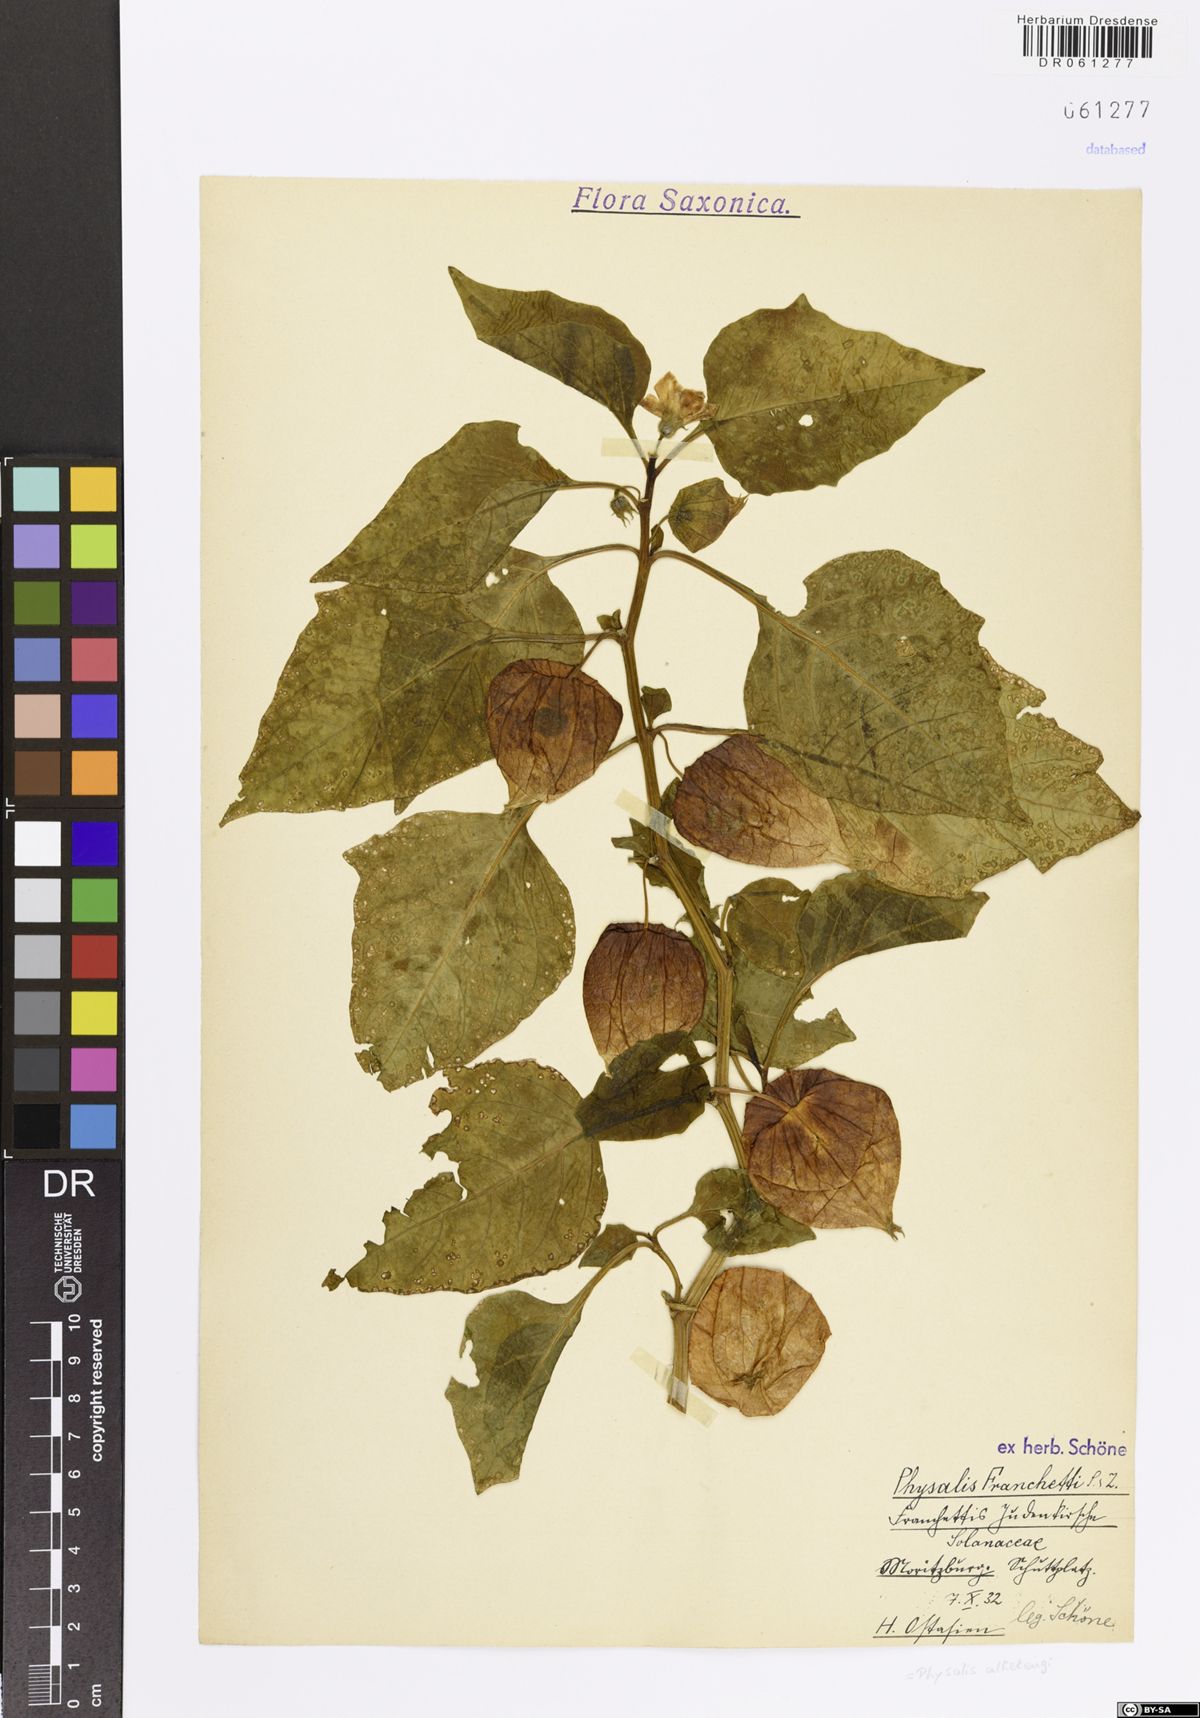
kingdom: Plantae
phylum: Tracheophyta
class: Magnoliopsida
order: Solanales
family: Solanaceae
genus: Alkekengi
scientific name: Alkekengi officinarum
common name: Japanese-lantern
